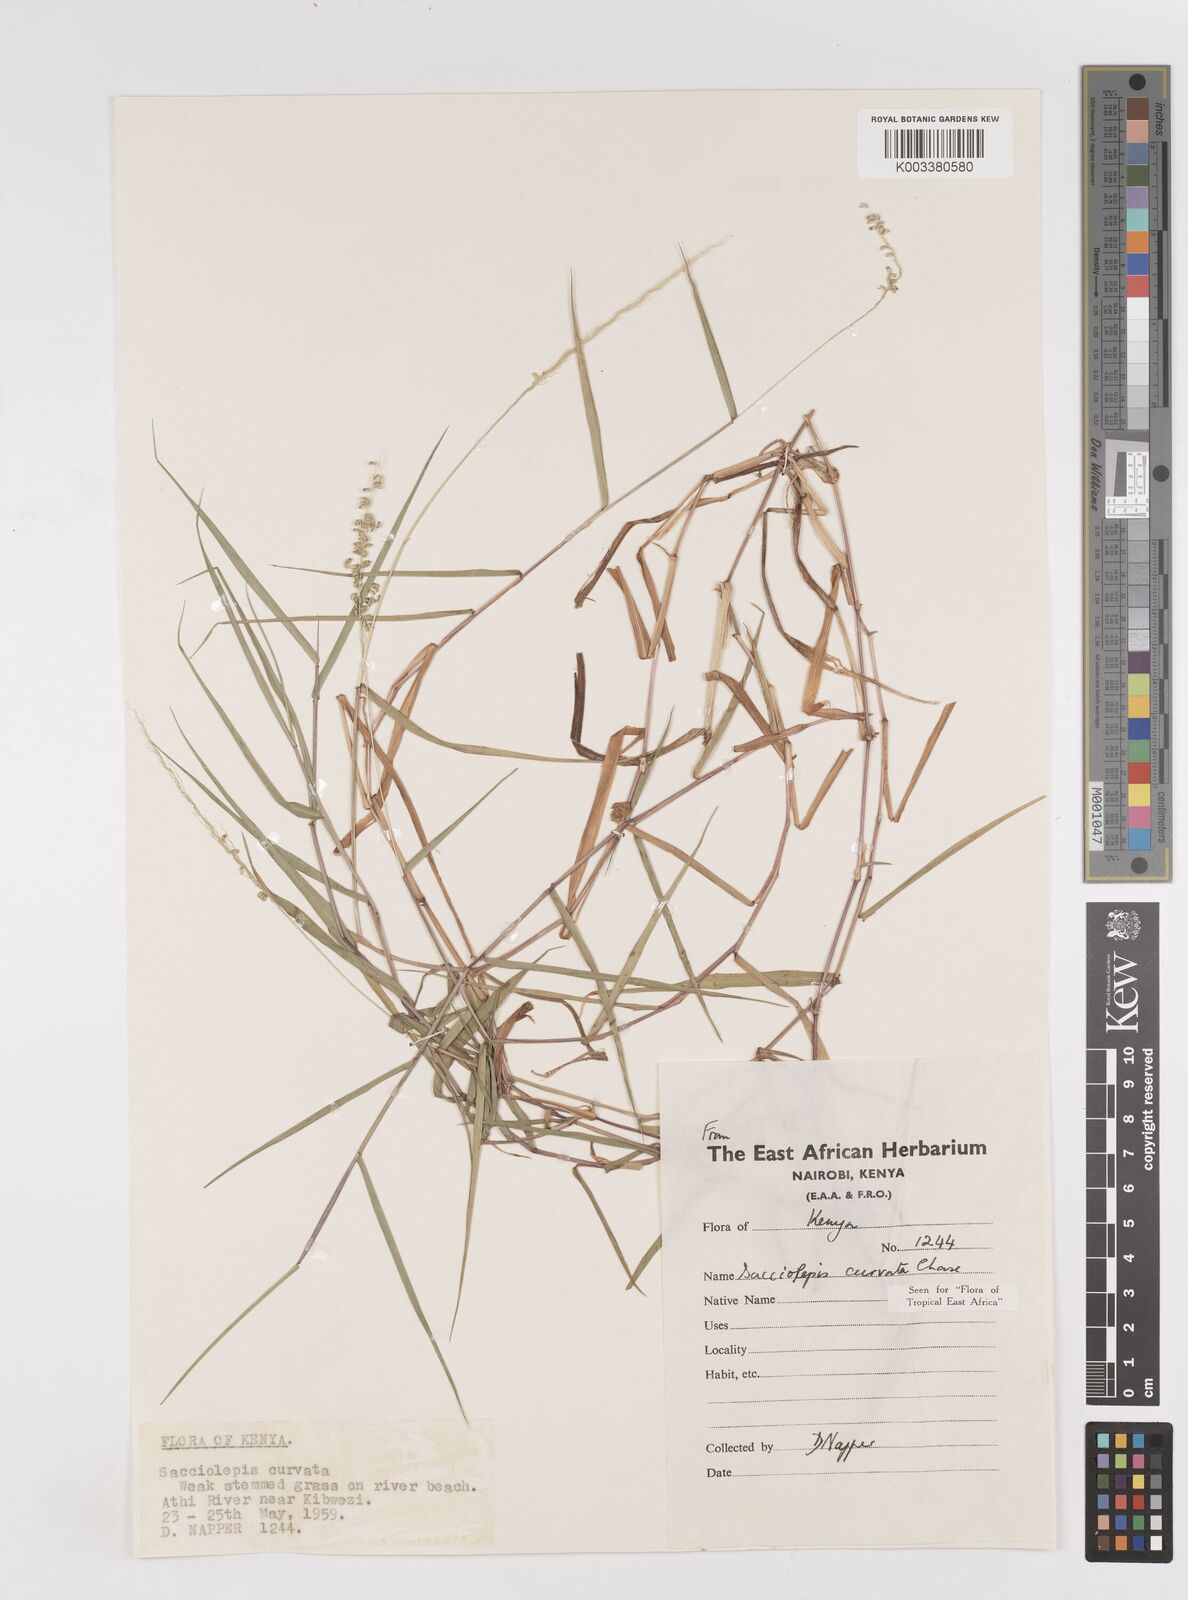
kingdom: Plantae
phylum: Tracheophyta
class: Liliopsida
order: Poales
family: Poaceae
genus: Sacciolepis
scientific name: Sacciolepis curvata
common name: Forest hood grass
